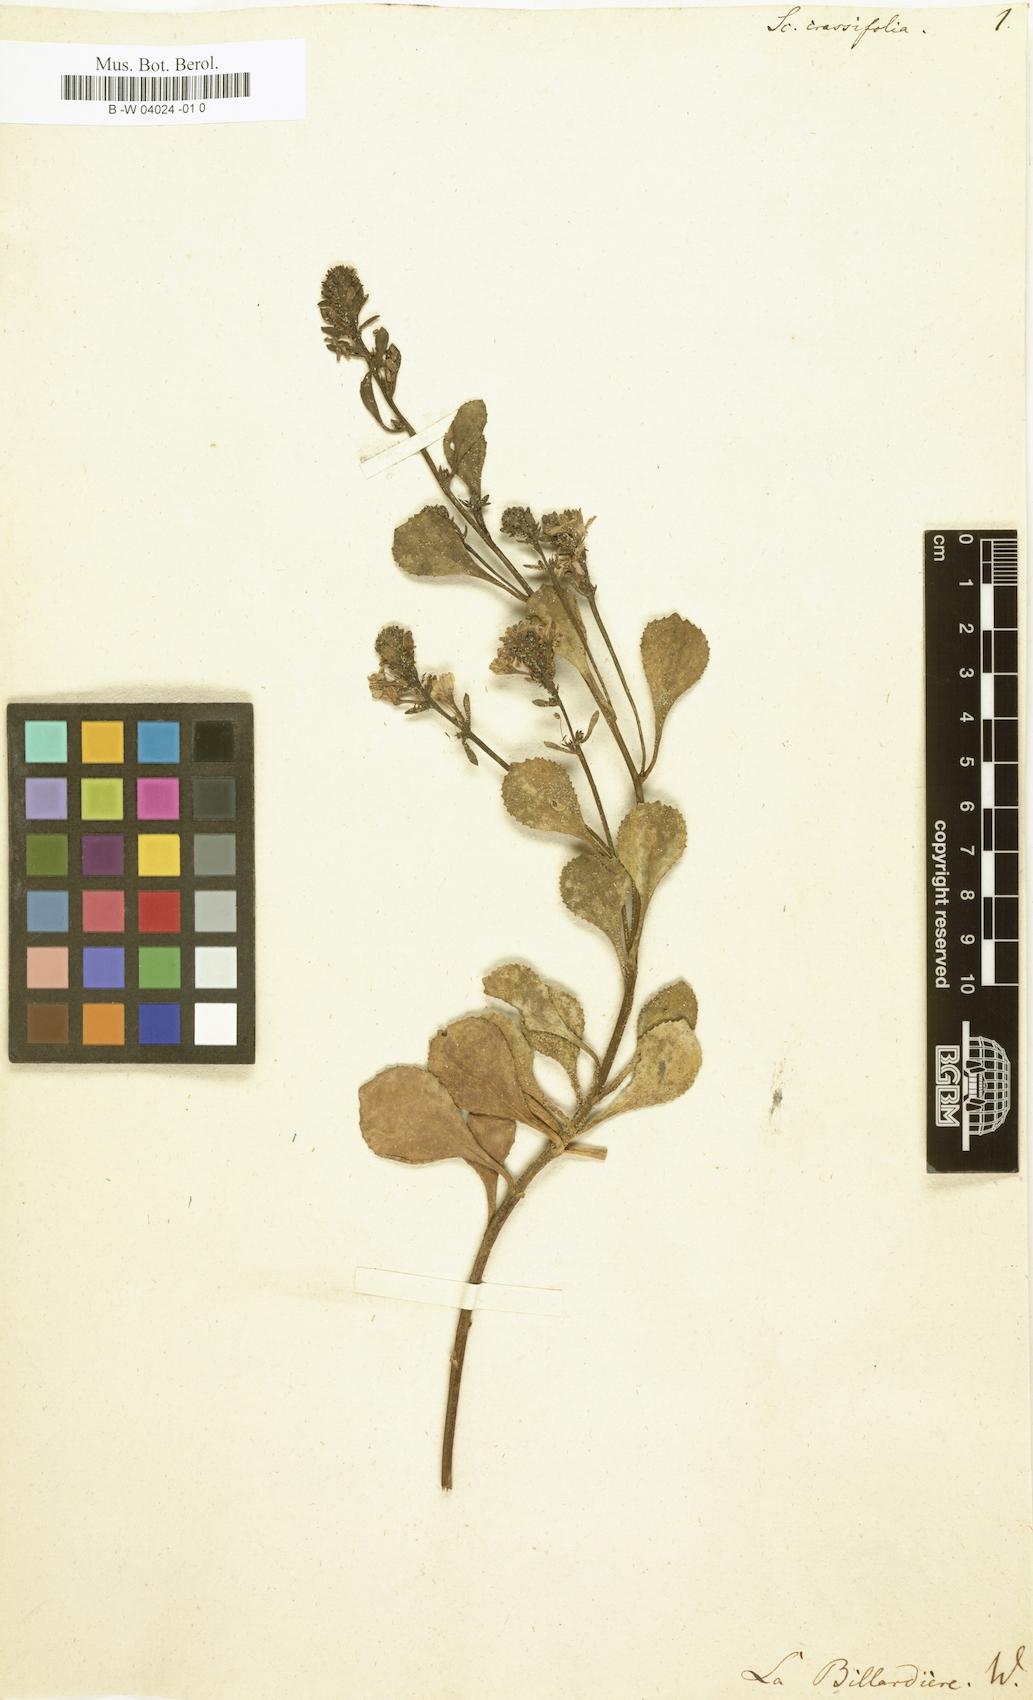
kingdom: Plantae
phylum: Tracheophyta
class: Magnoliopsida
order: Asterales
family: Goodeniaceae
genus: Scaevola
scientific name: Scaevola crassifolia
